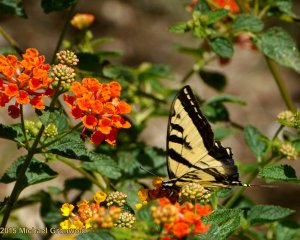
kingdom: Animalia
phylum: Arthropoda
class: Insecta
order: Lepidoptera
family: Papilionidae
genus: Pterourus
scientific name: Pterourus rutulus
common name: Western Tiger Swallowtail
